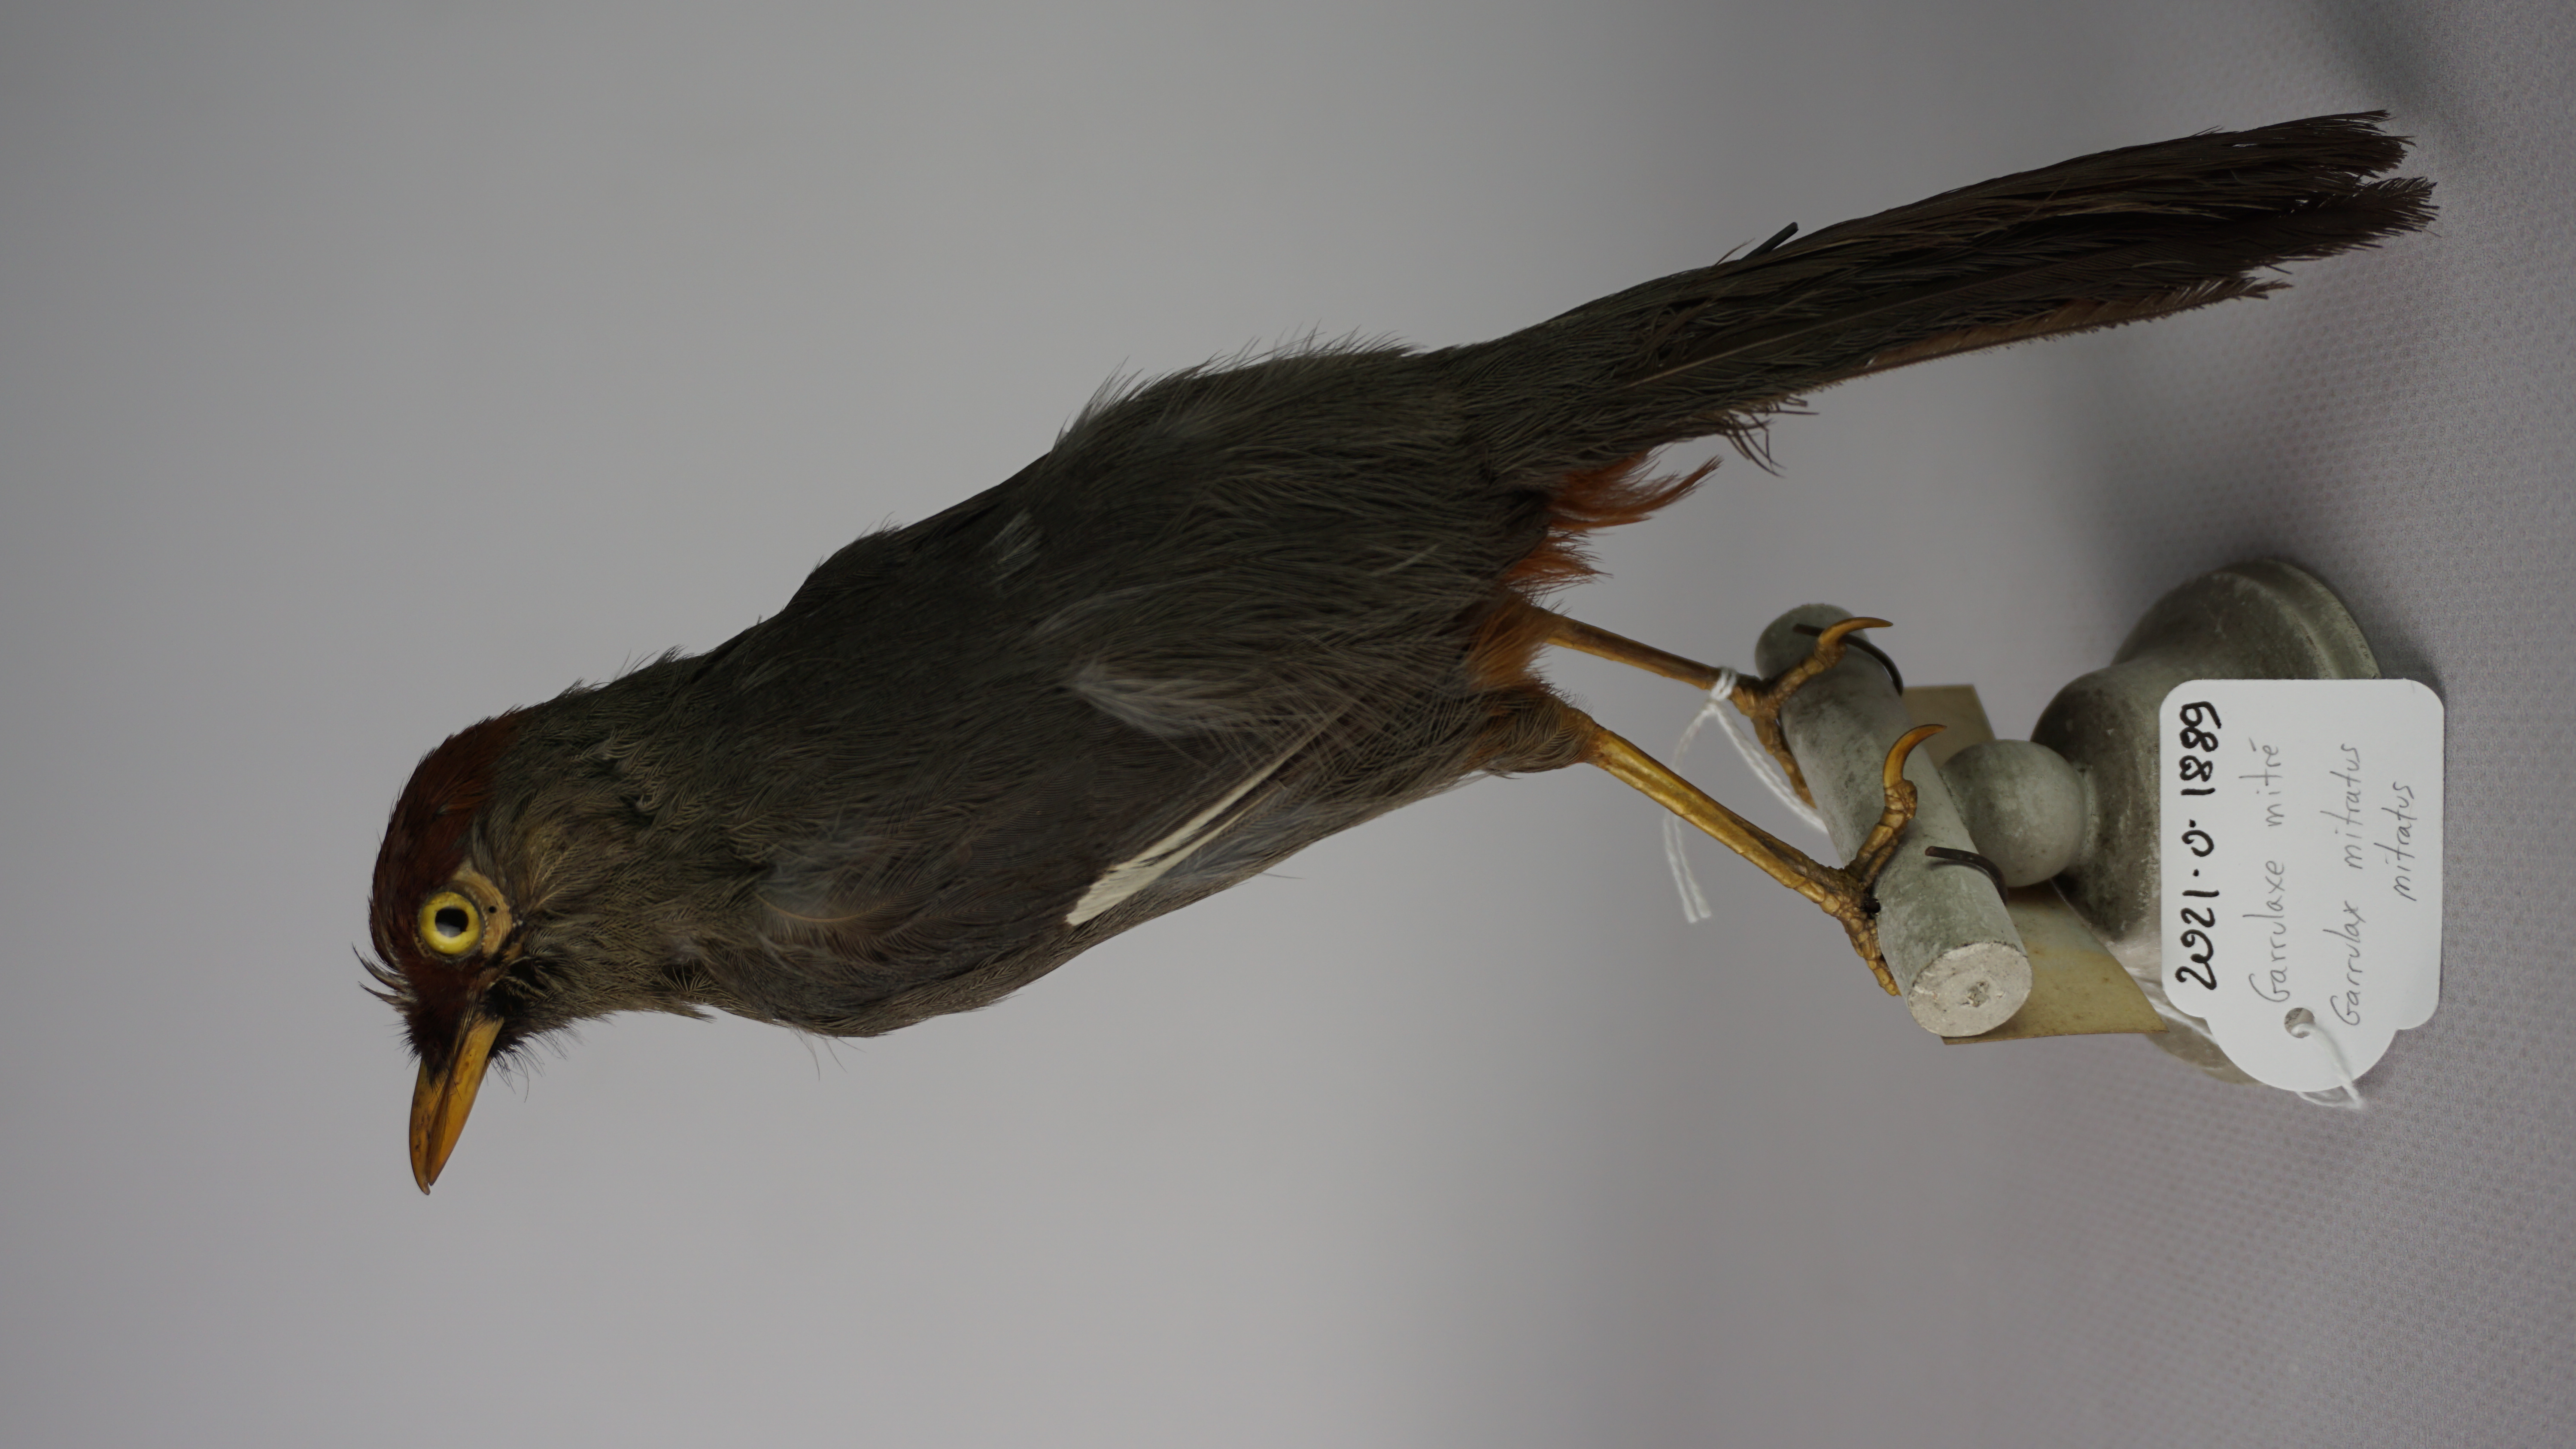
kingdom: Animalia
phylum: Chordata
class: Aves
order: Passeriformes
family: Leiothrichidae
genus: Garrulax
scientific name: Garrulax mitratus
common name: Chestnut-capped laughingthrush
